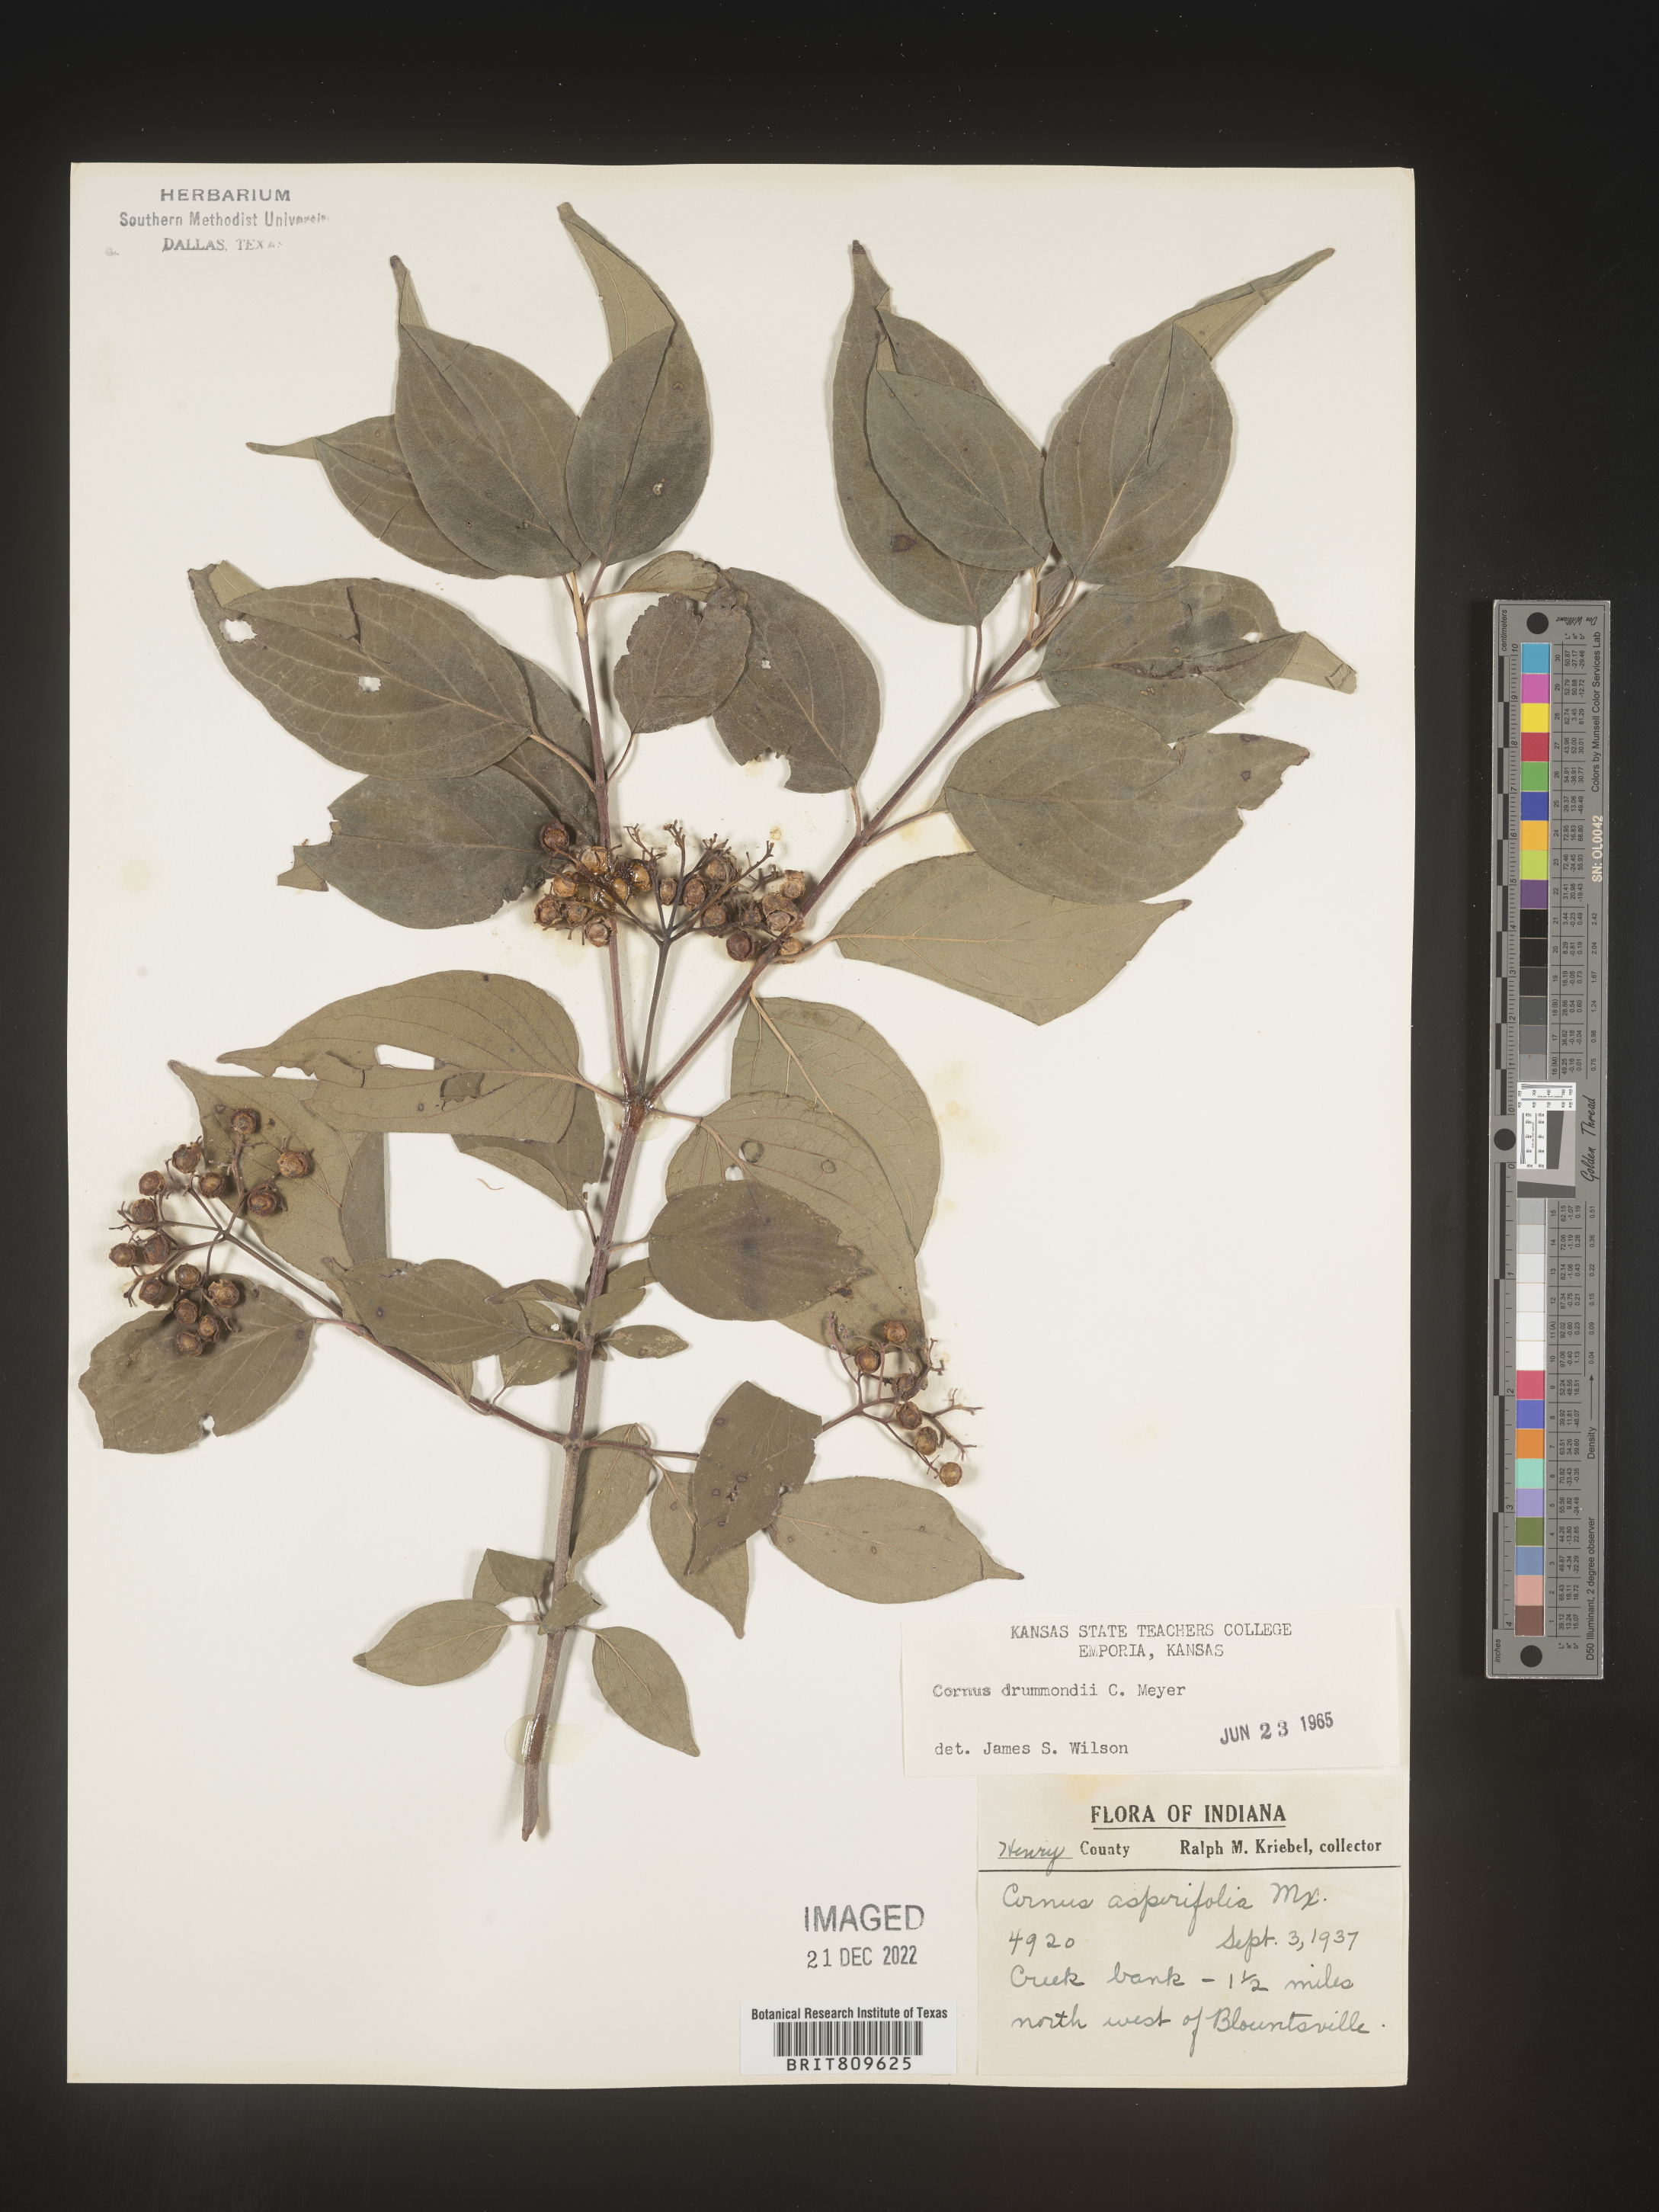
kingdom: Plantae
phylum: Tracheophyta
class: Magnoliopsida
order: Cornales
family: Cornaceae
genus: Cornus
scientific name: Cornus drummondii
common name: Rough-leaf dogwood
